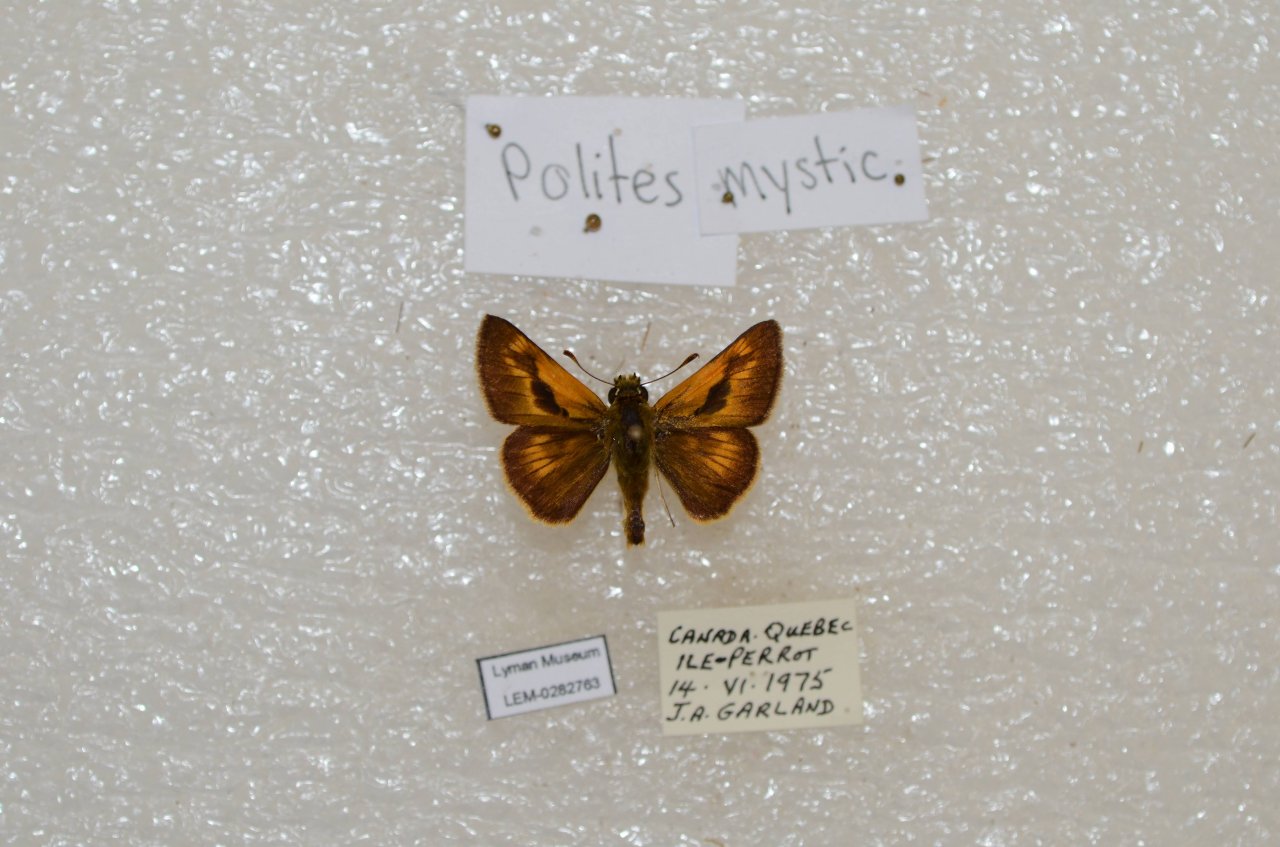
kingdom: Animalia
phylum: Arthropoda
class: Insecta
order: Lepidoptera
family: Hesperiidae
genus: Polites
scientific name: Polites
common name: Long Dash Skipper
